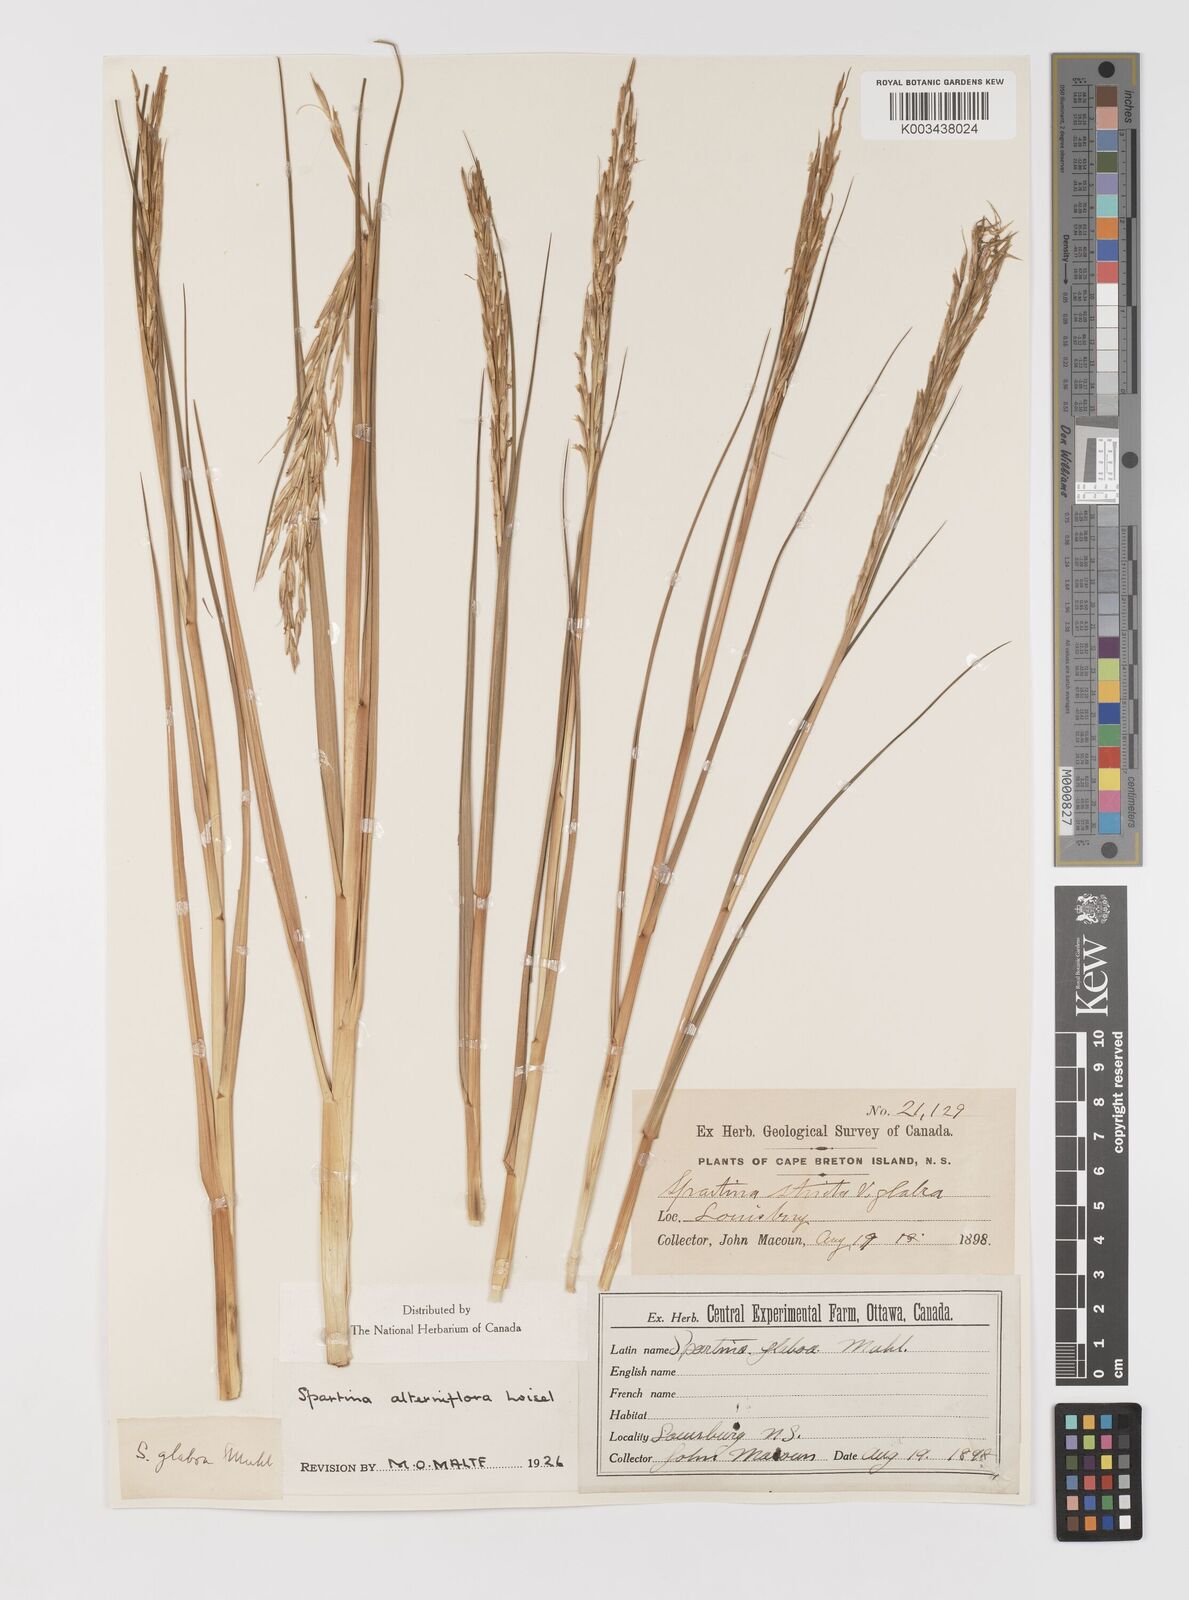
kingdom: Animalia
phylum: Mollusca
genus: Spartina
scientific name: Spartina
